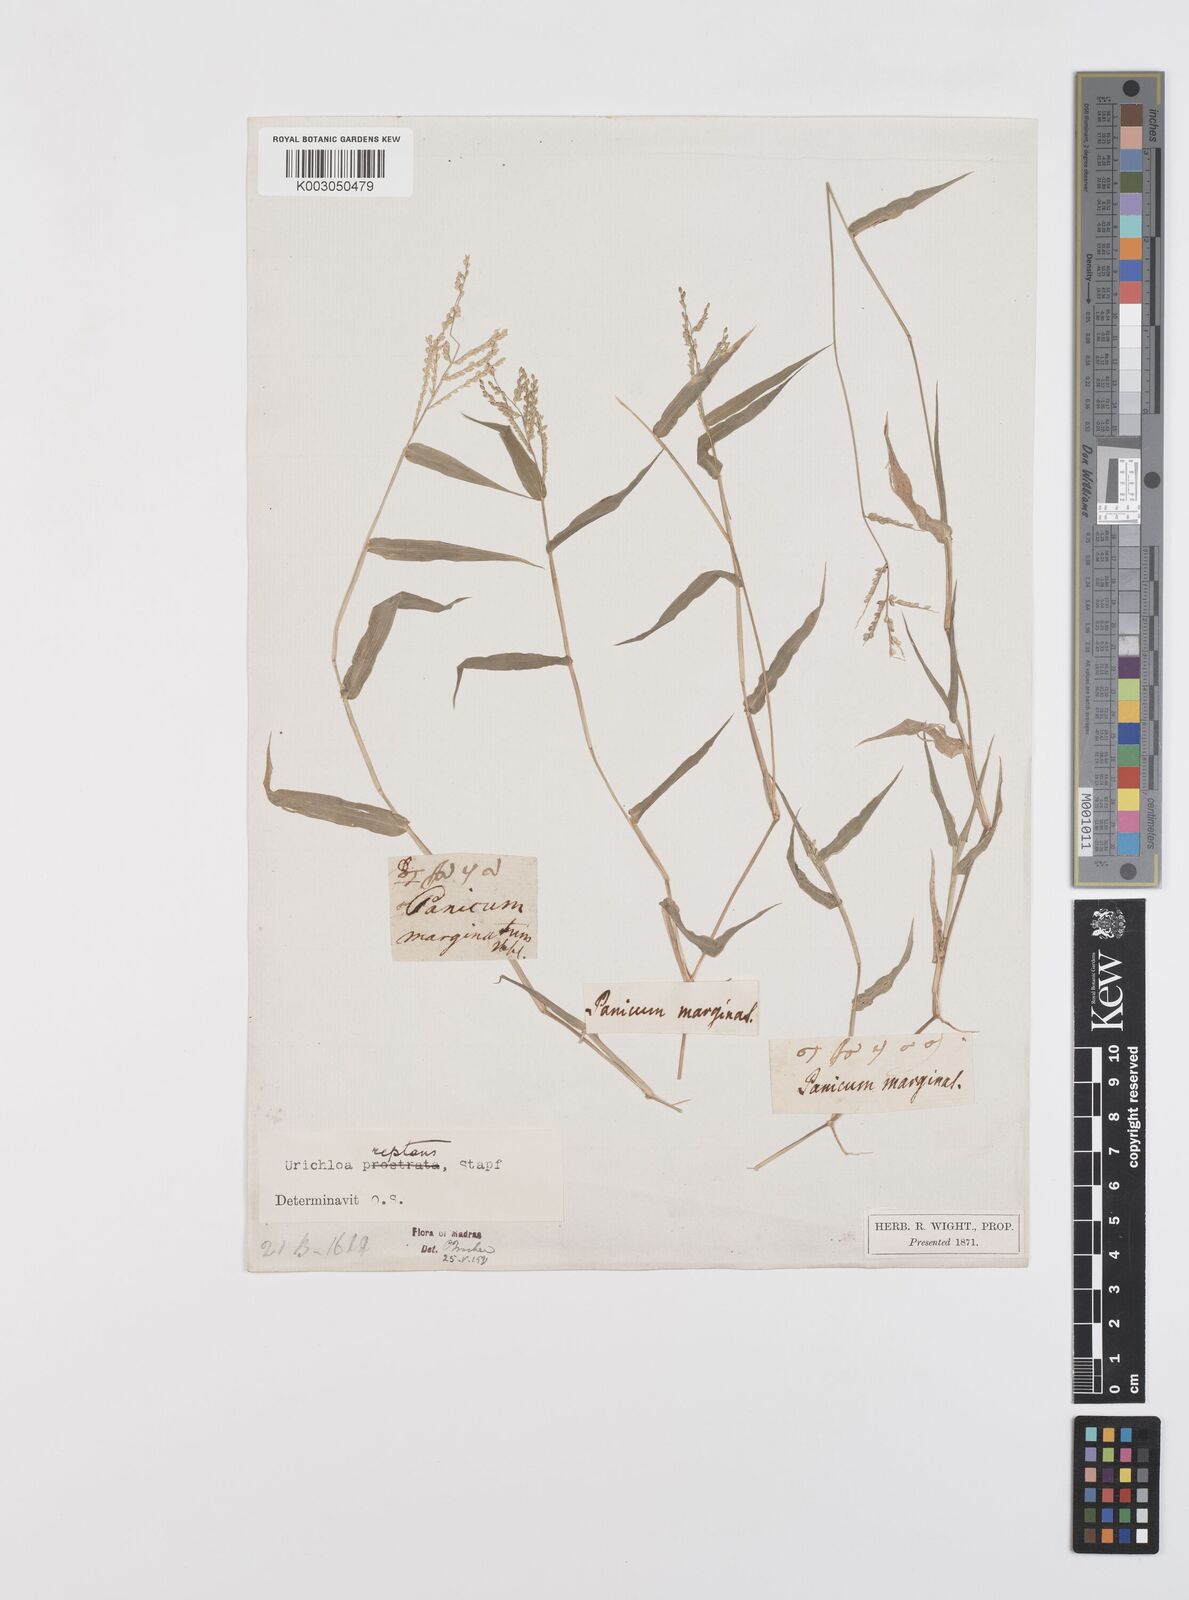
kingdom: Plantae
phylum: Tracheophyta
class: Liliopsida
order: Poales
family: Poaceae
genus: Urochloa
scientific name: Urochloa reptans
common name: Sprawling signalgrass
